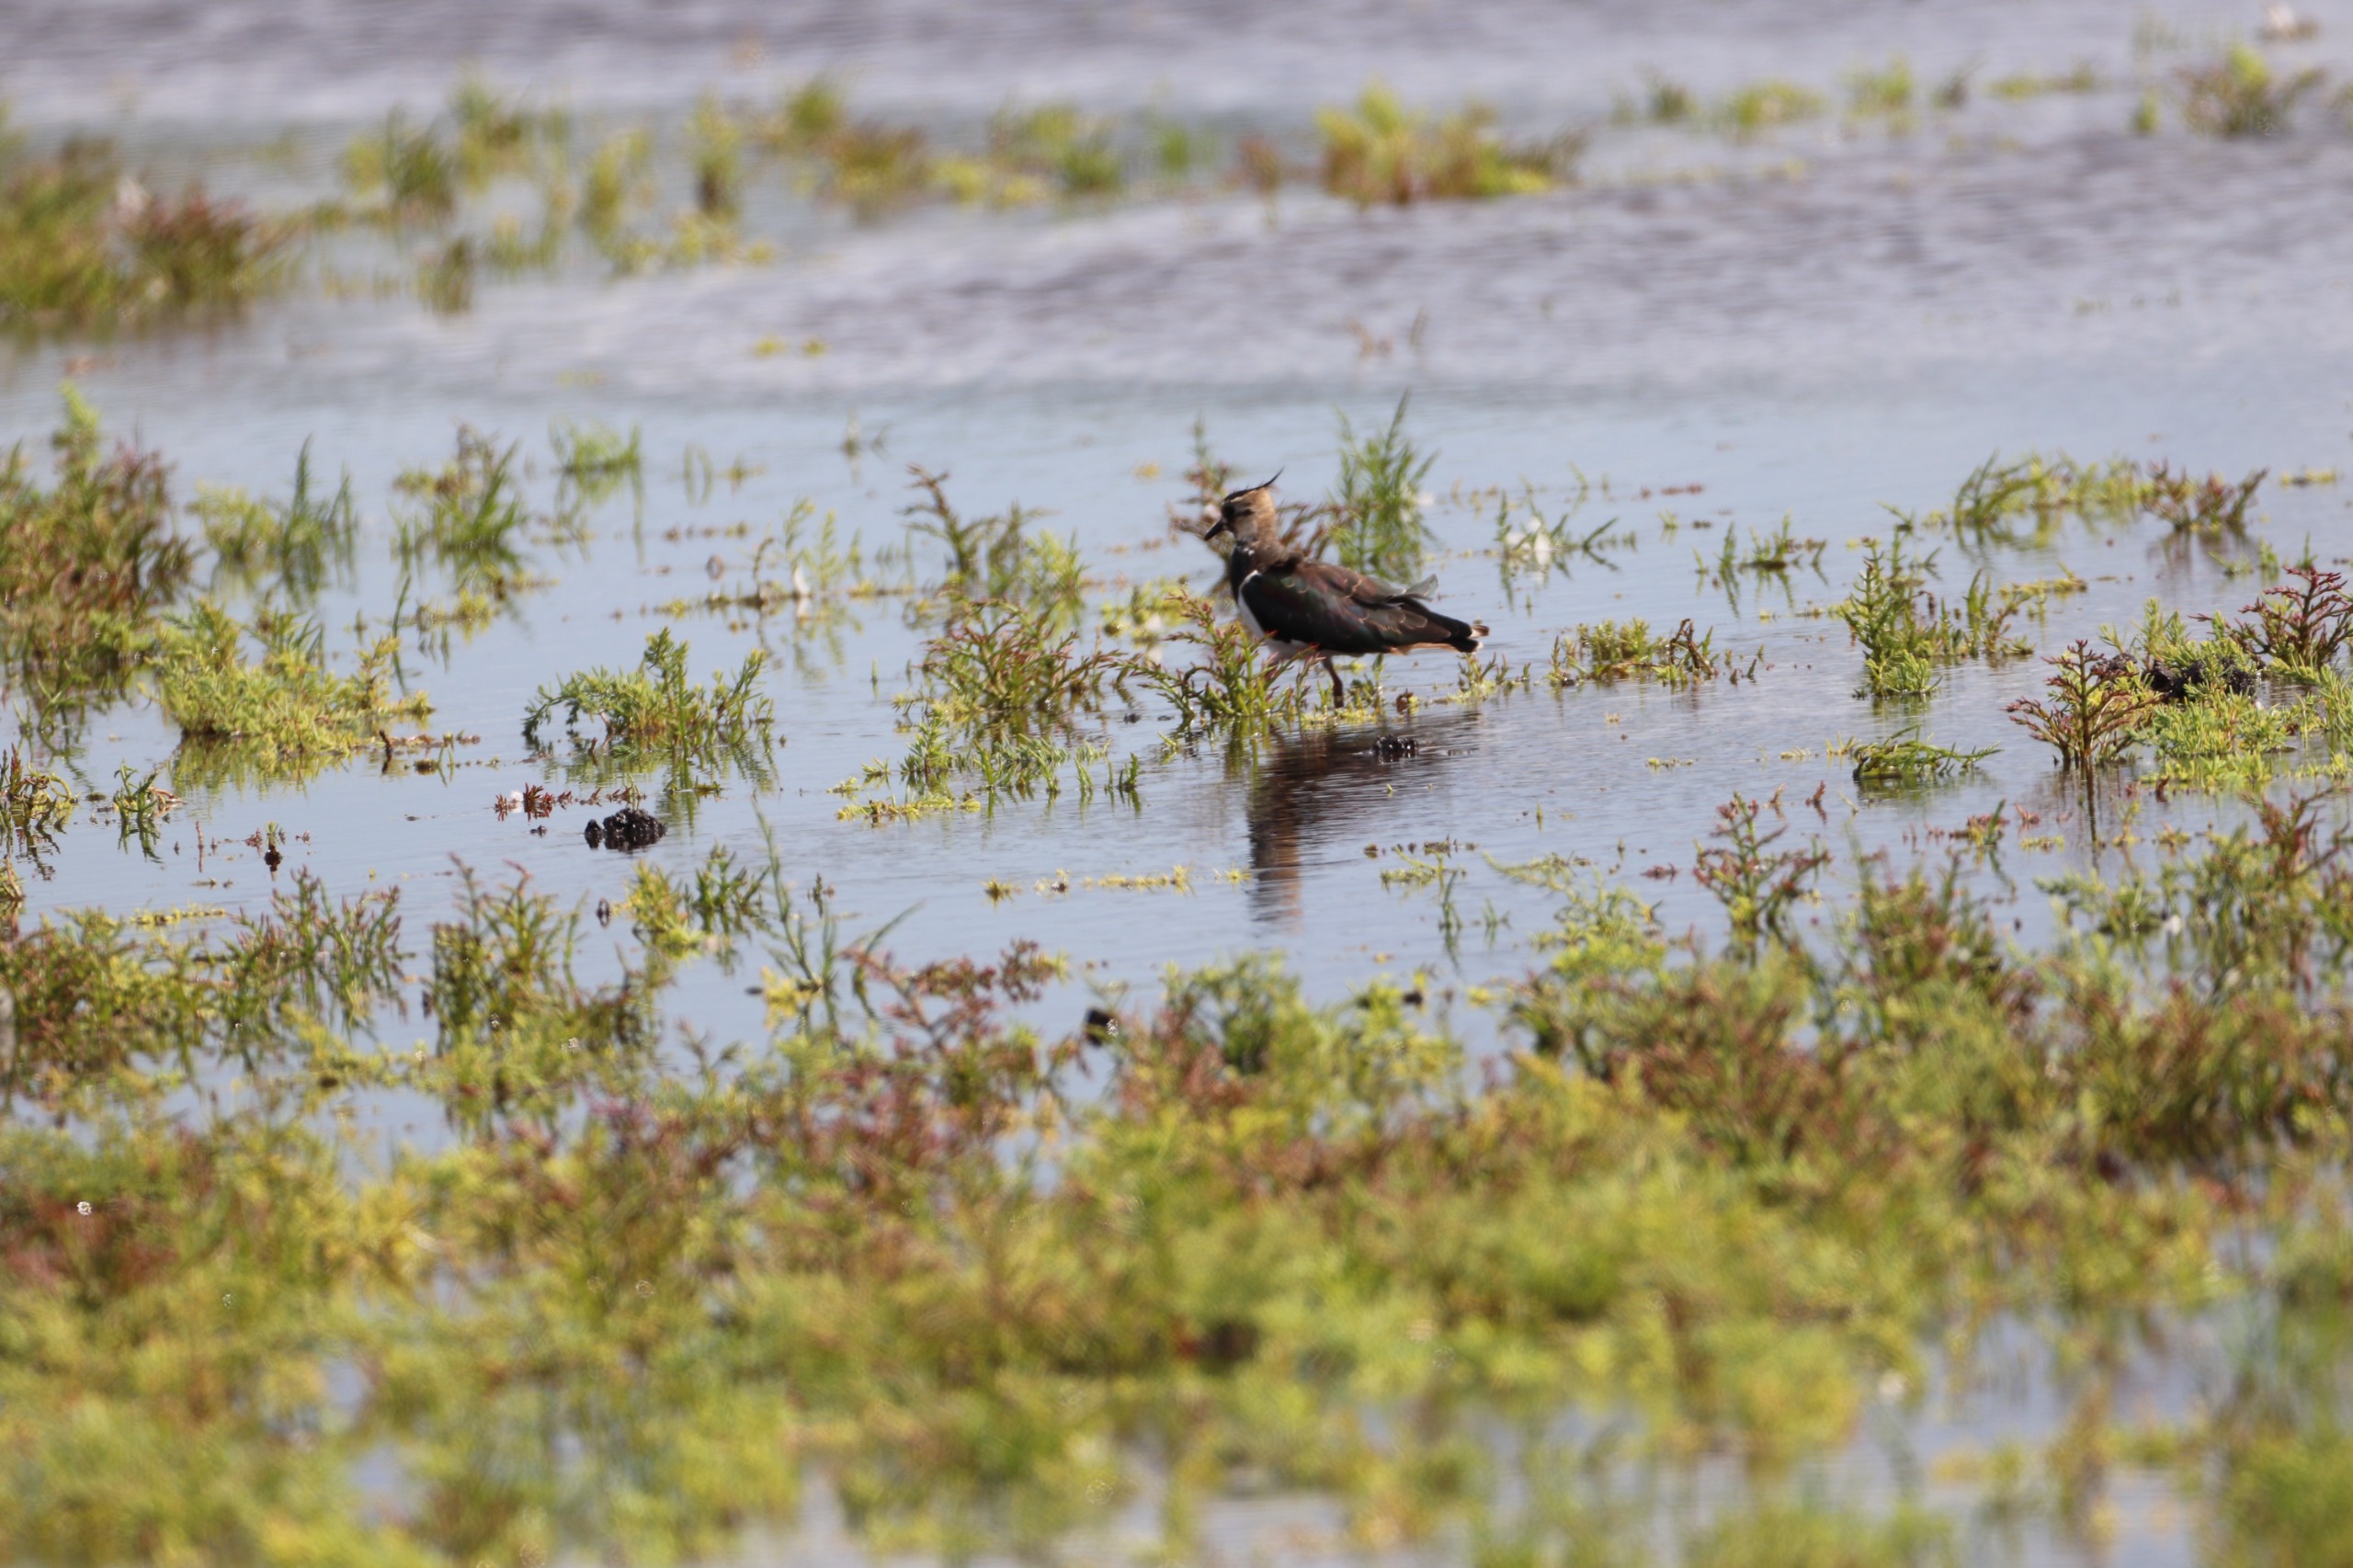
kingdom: Animalia
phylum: Chordata
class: Aves
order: Charadriiformes
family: Charadriidae
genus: Vanellus
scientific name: Vanellus vanellus
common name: Vibe
